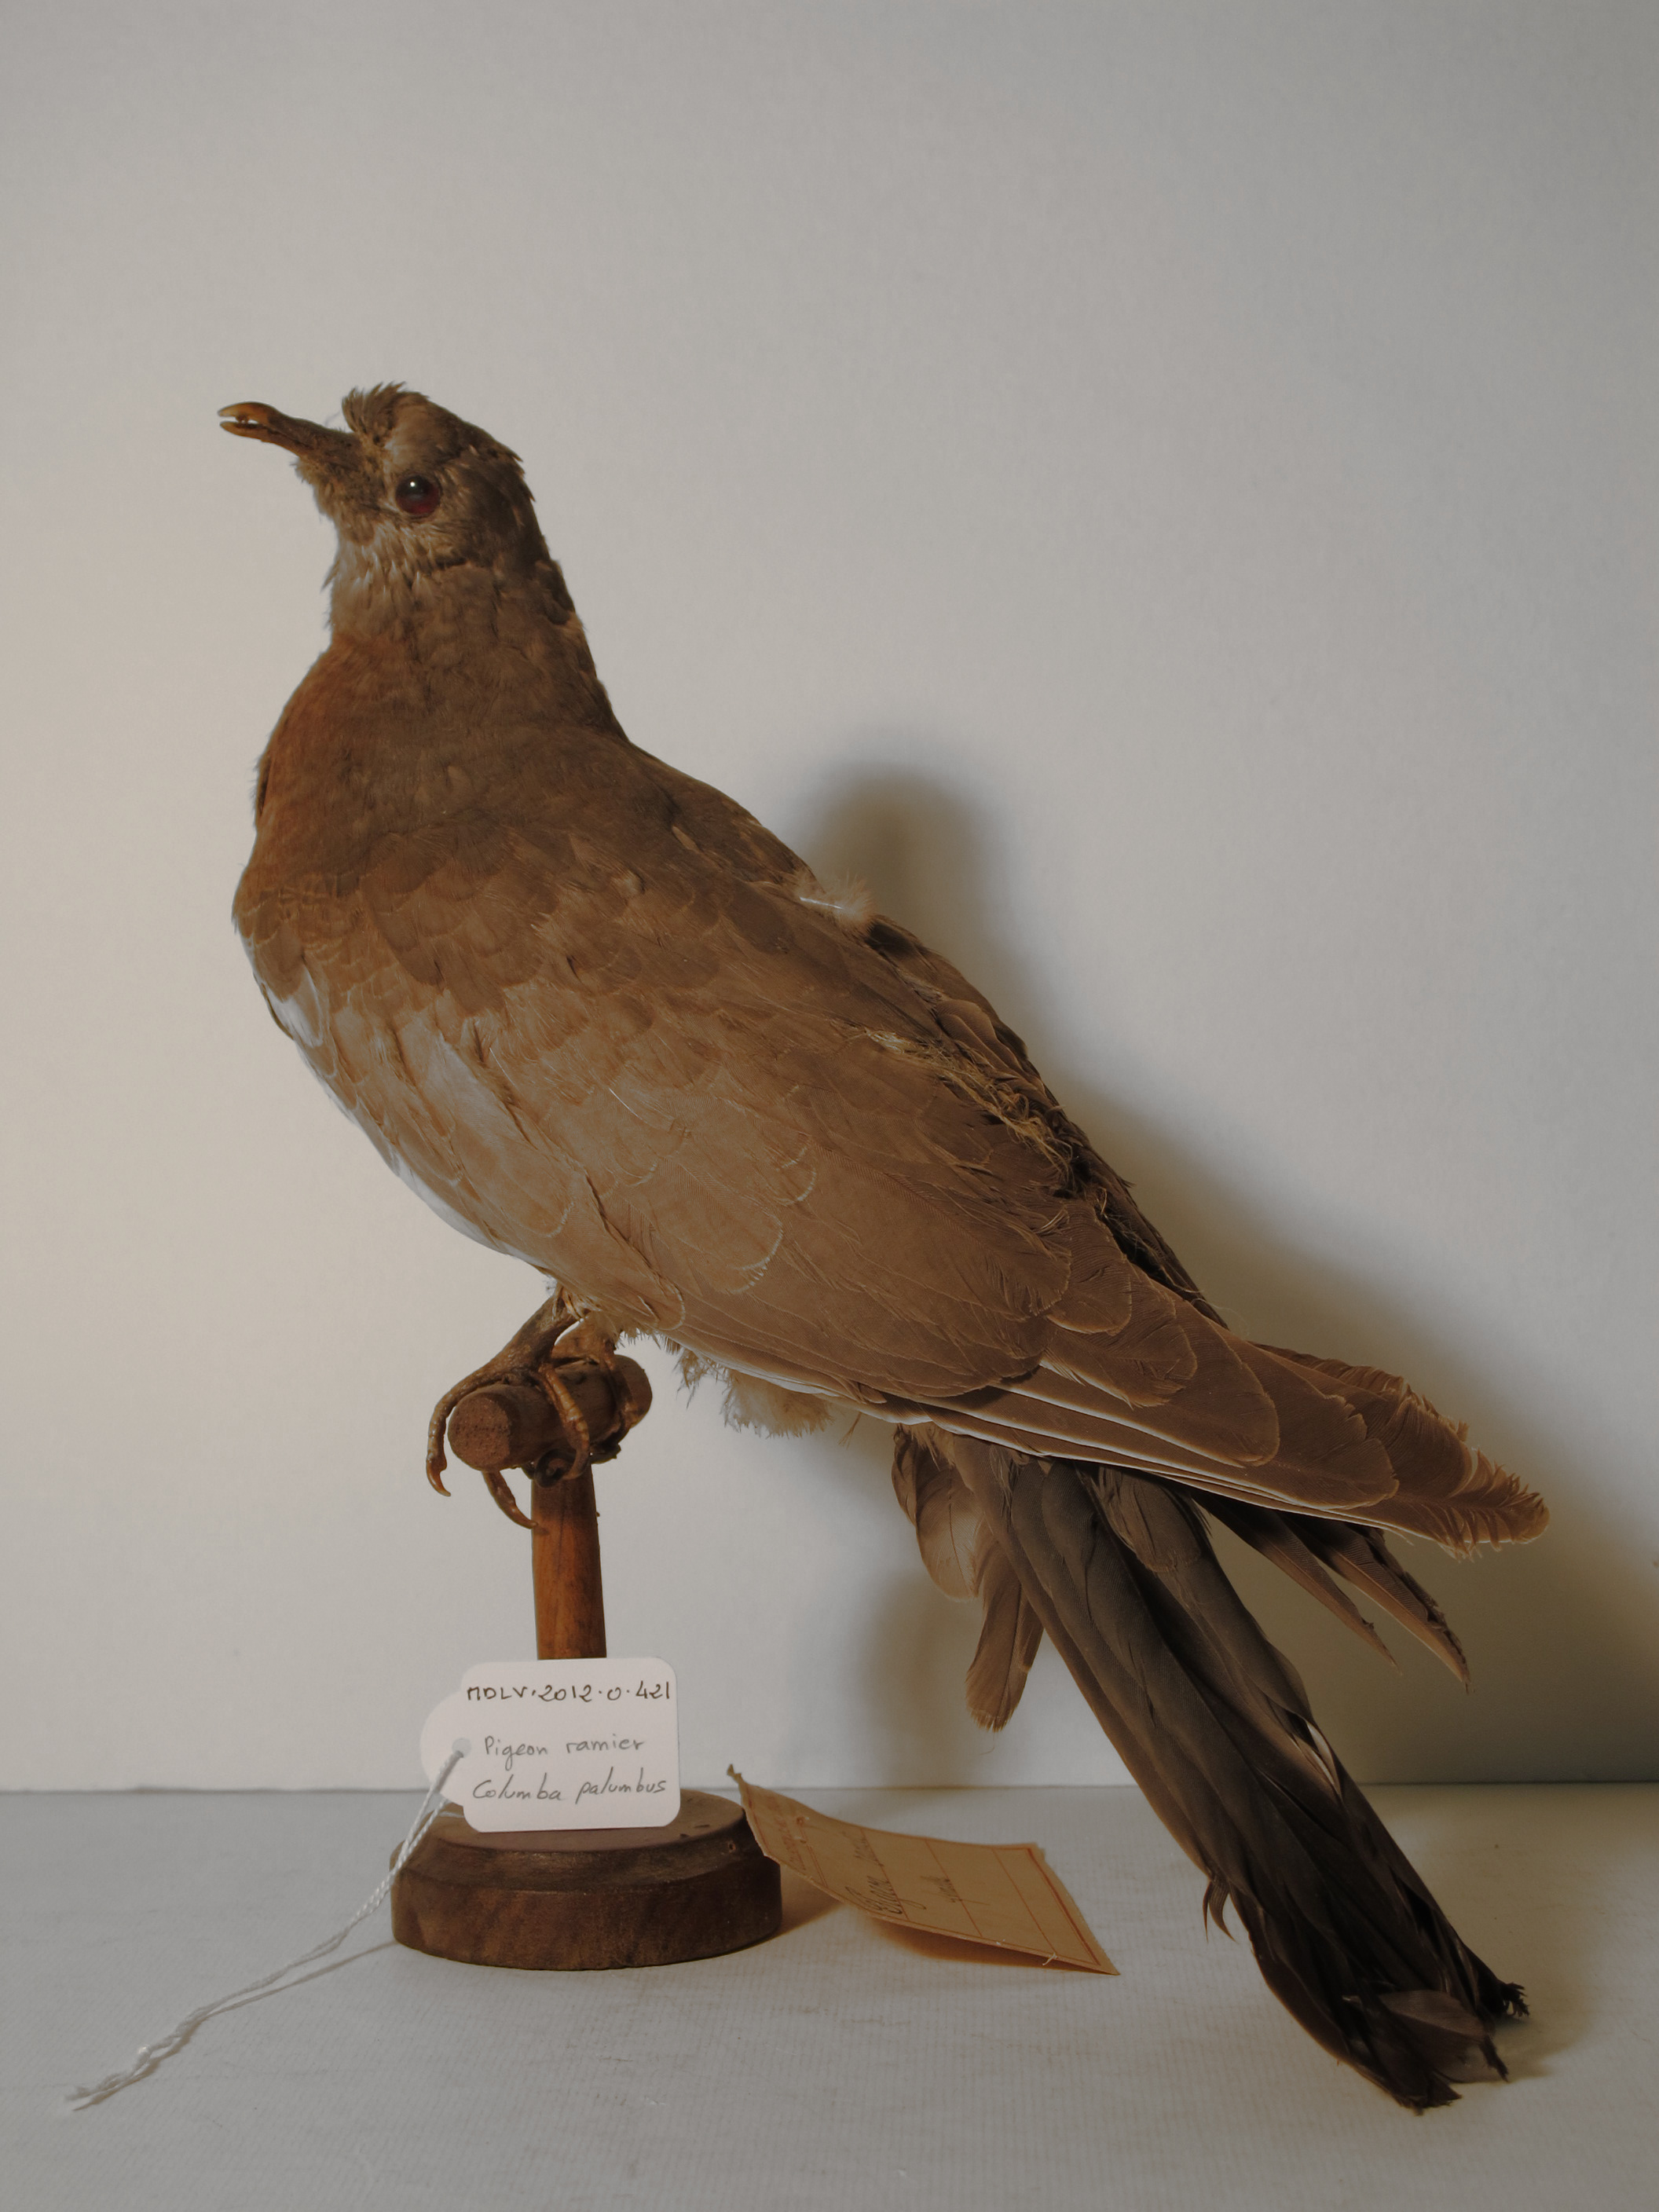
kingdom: Animalia
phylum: Chordata
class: Aves
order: Columbiformes
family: Columbidae
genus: Columba
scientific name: Columba palumbus
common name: Common Woodpigeon
